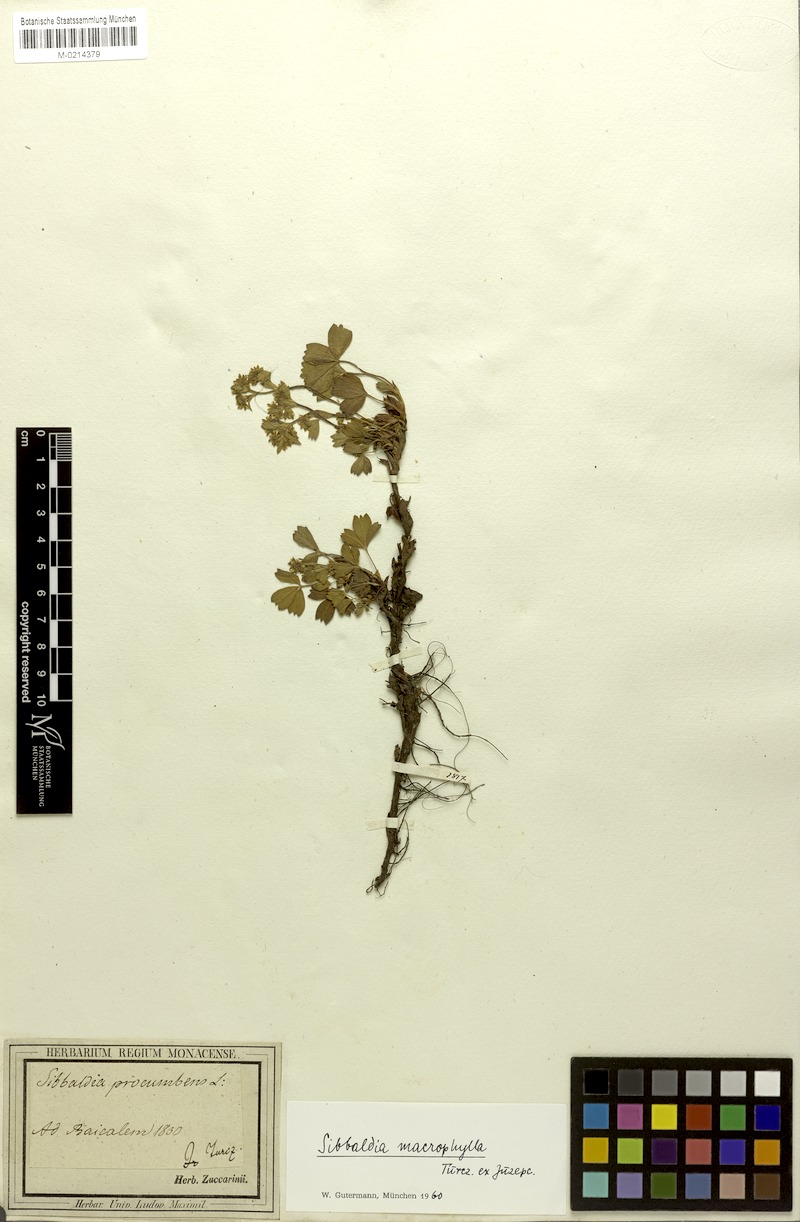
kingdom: Plantae
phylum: Tracheophyta
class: Magnoliopsida
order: Rosales
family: Rosaceae
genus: Sibbaldia
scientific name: Sibbaldia procumbens
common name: Creeping sibbaldia
